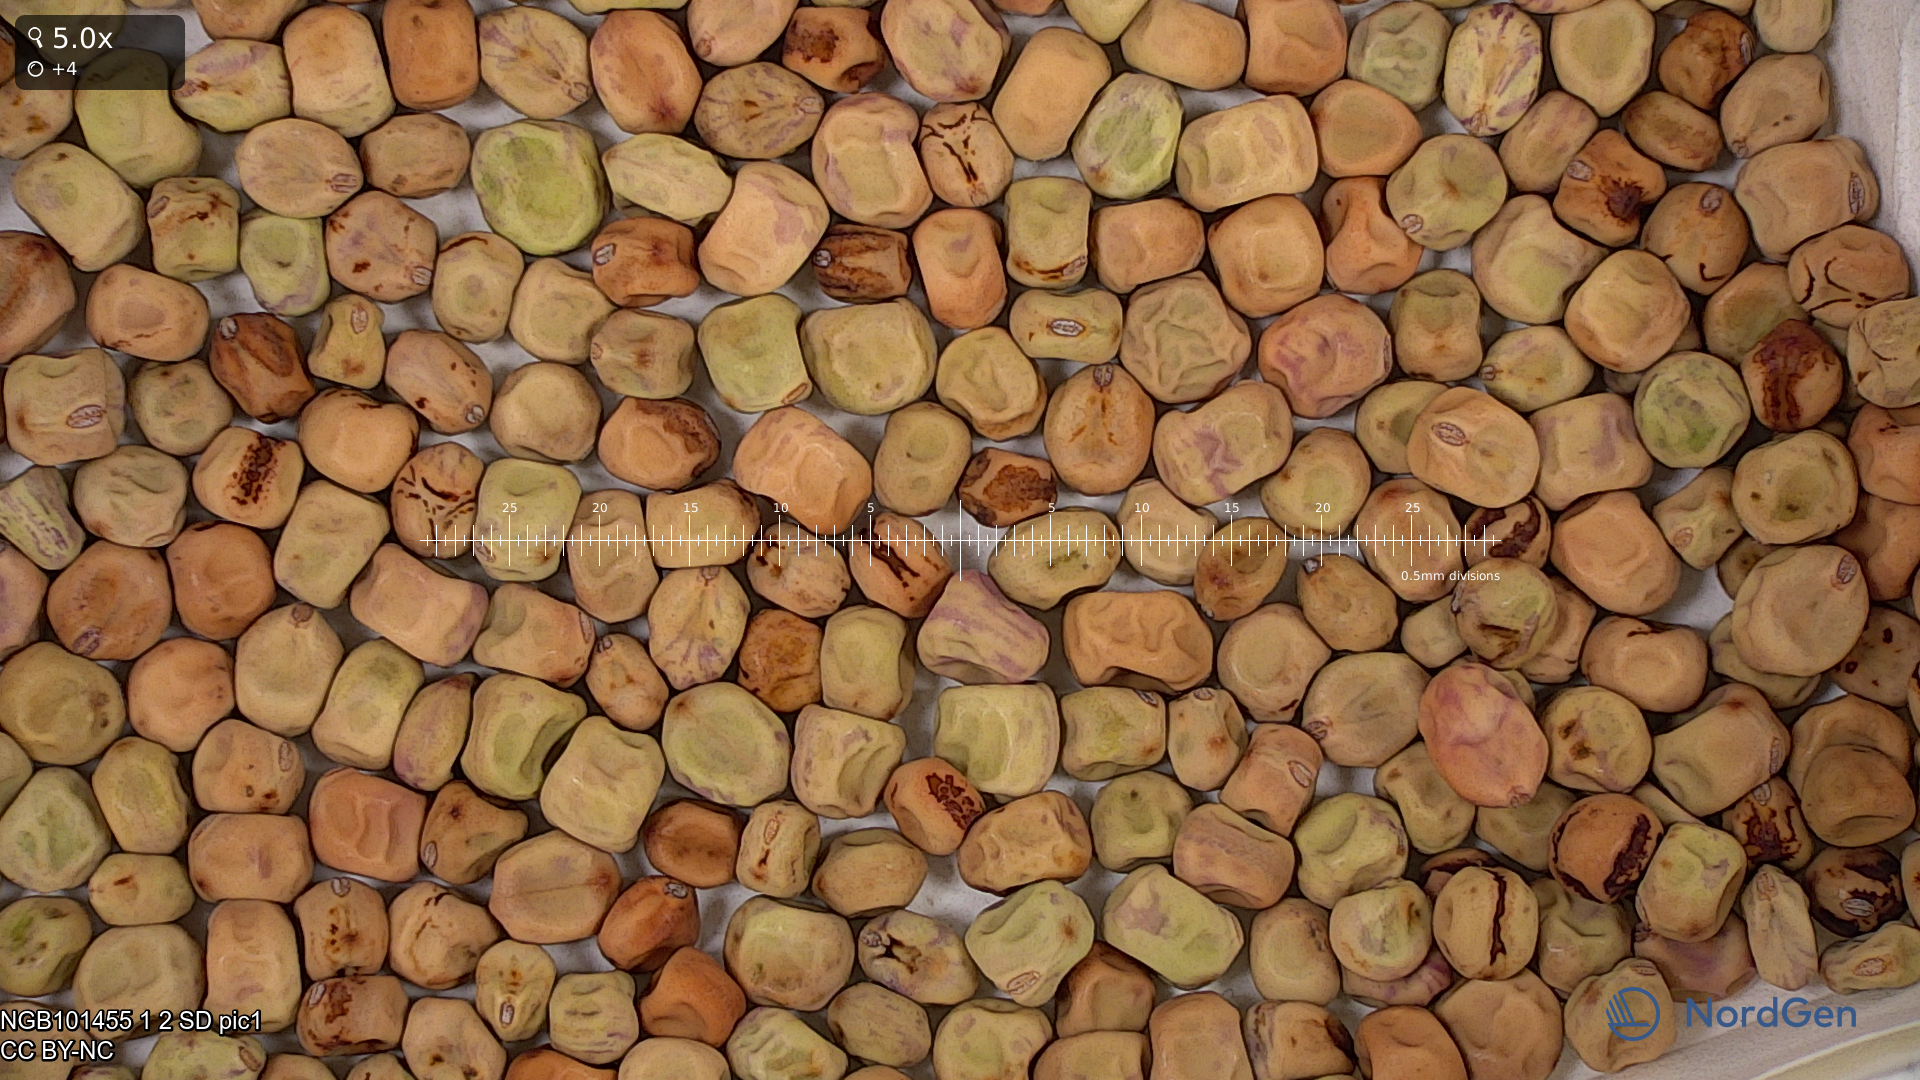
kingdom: Plantae
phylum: Tracheophyta
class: Magnoliopsida
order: Fabales
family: Fabaceae
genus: Lathyrus
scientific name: Lathyrus oleraceus
